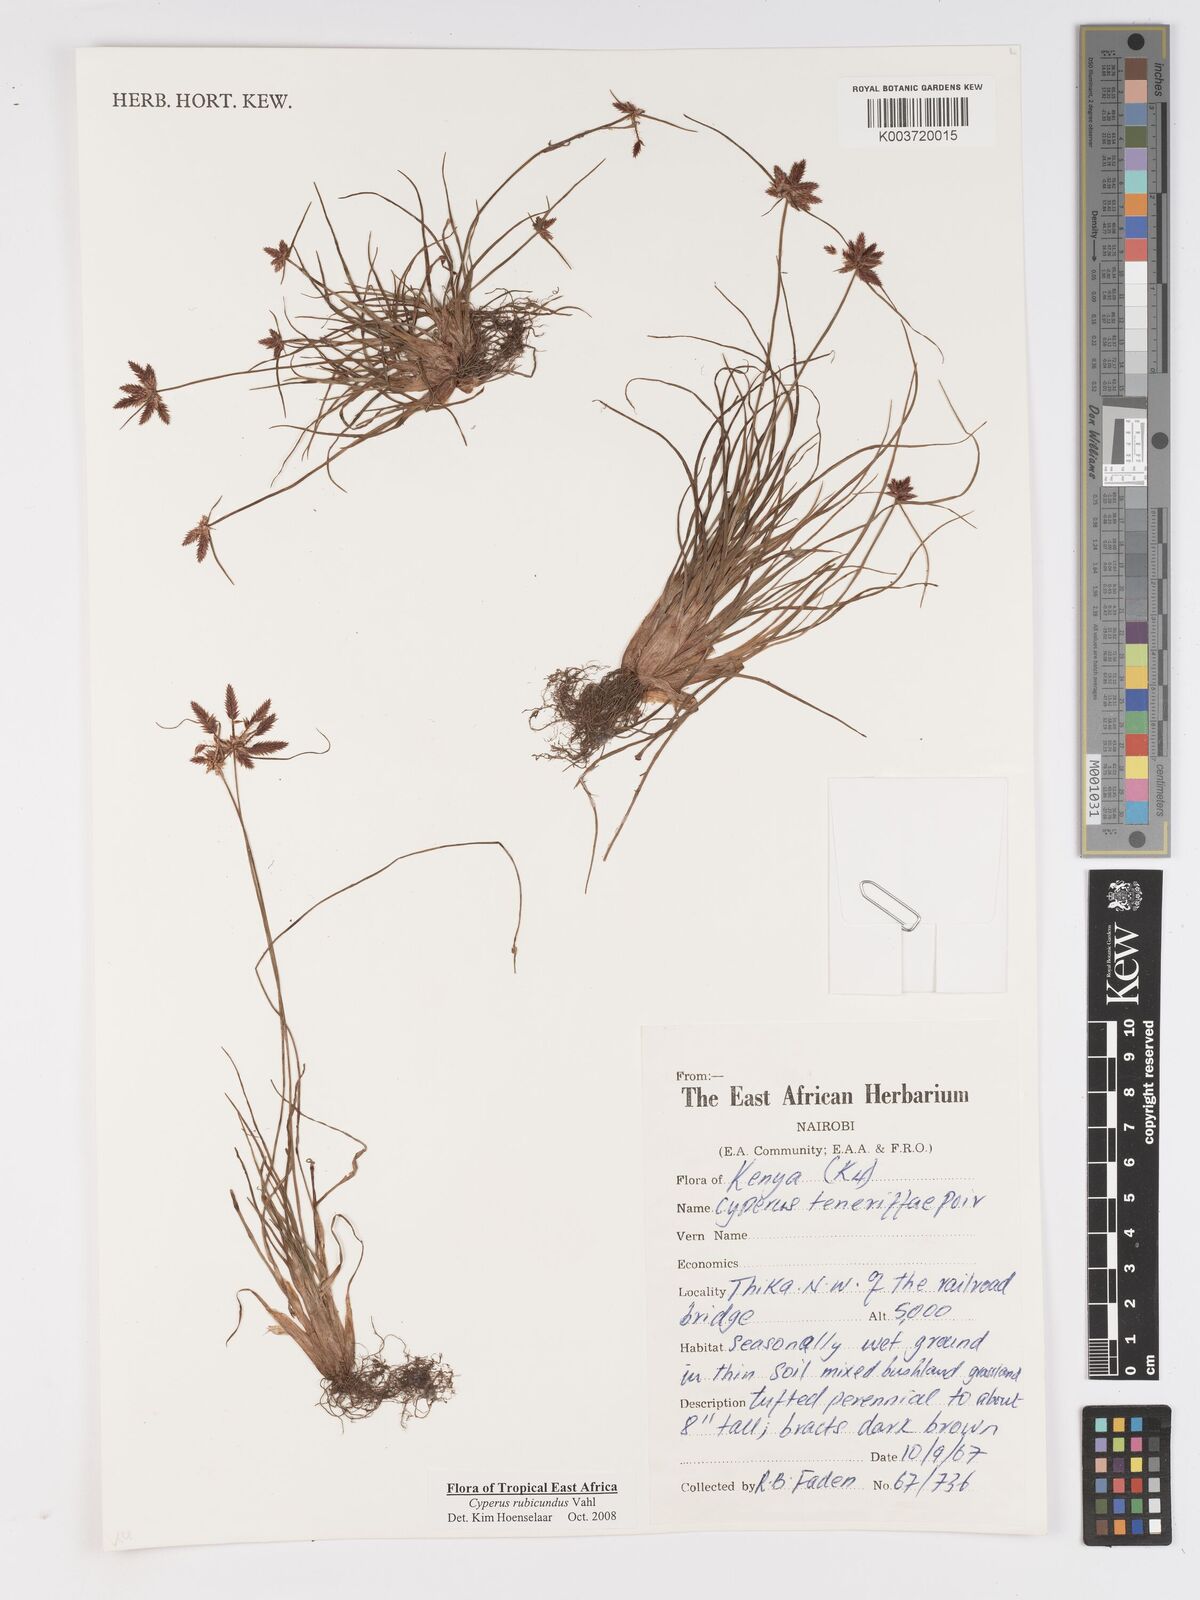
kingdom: Plantae
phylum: Tracheophyta
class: Liliopsida
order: Poales
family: Cyperaceae
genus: Cyperus
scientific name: Cyperus rubicundus
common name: Coco-grass
